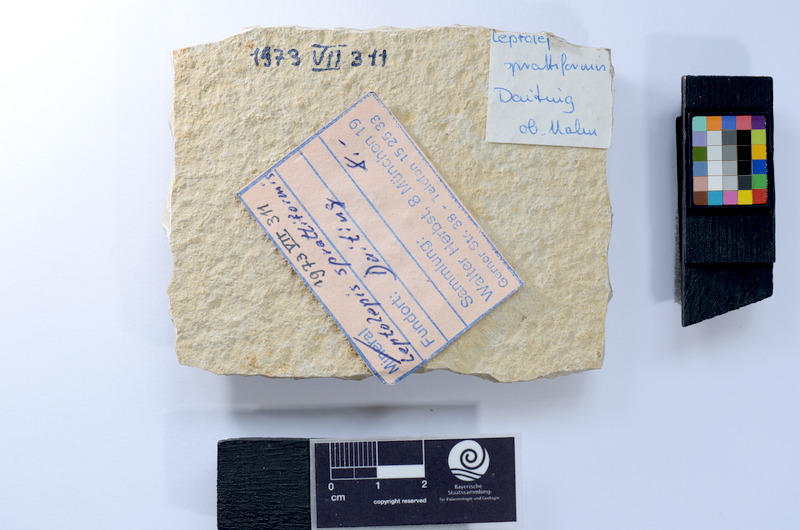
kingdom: Animalia
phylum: Chordata
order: Salmoniformes
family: Orthogonikleithridae
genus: Leptolepides
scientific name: Leptolepides sprattiformis
